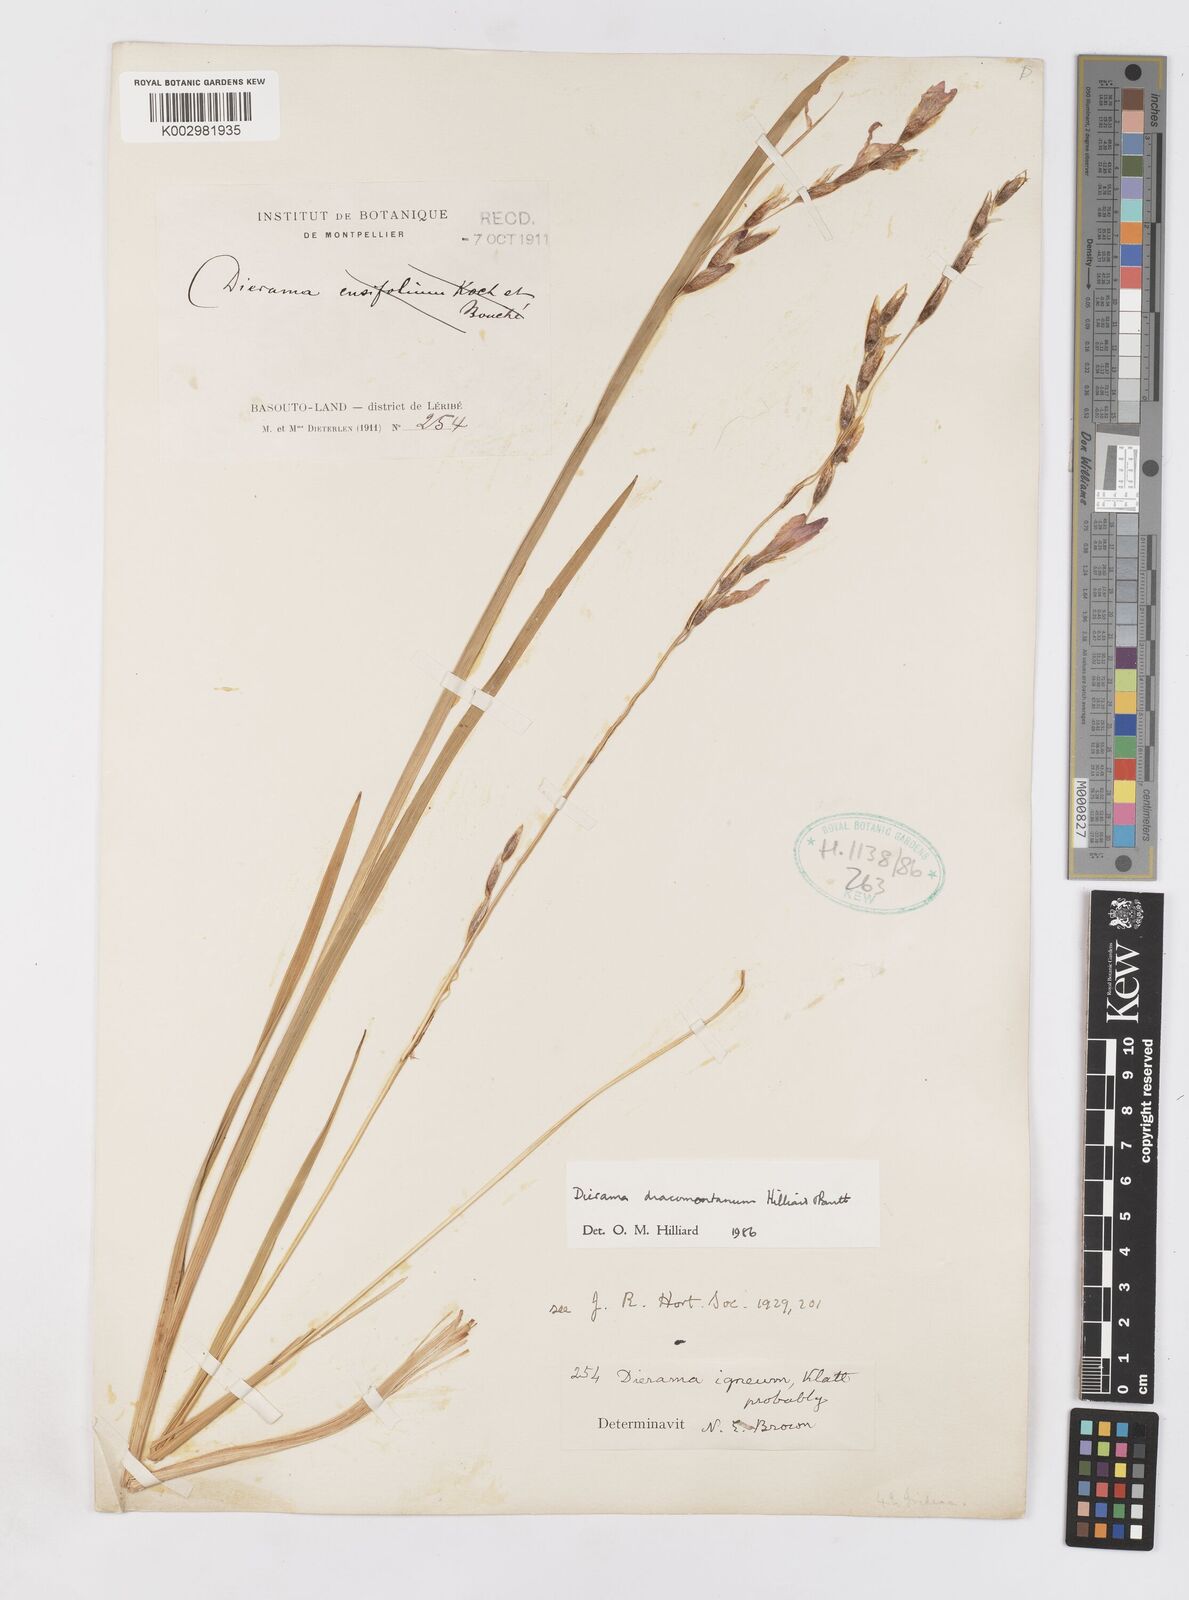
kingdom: Plantae
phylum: Tracheophyta
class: Liliopsida
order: Asparagales
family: Iridaceae
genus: Dierama
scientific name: Dierama dracomontanum
